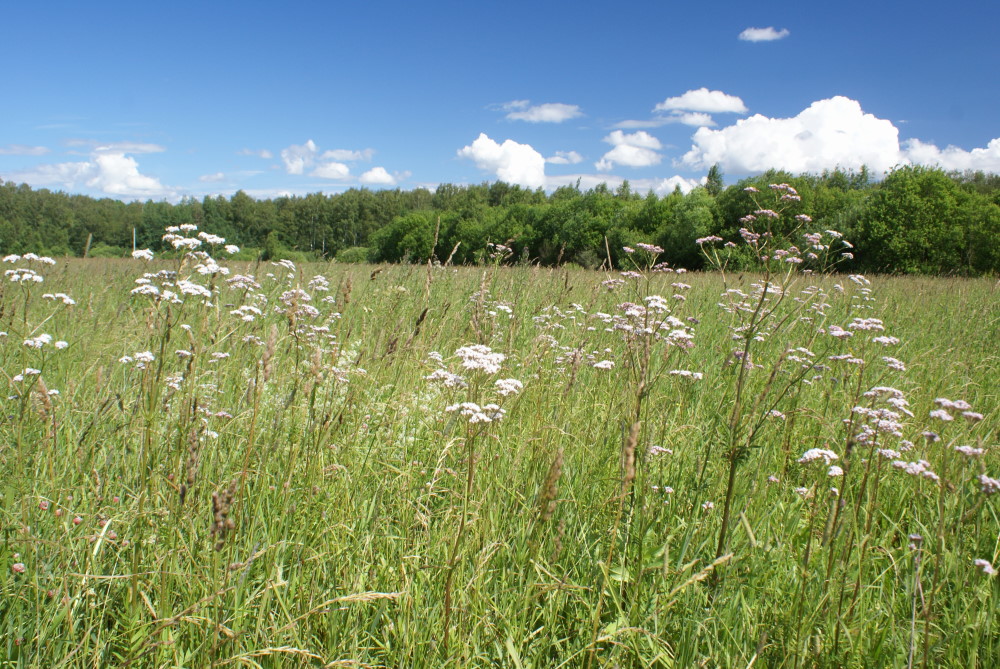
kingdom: Plantae
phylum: Tracheophyta
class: Magnoliopsida
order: Brassicales
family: Brassicaceae
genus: Lepidium
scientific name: Lepidium latifolium
